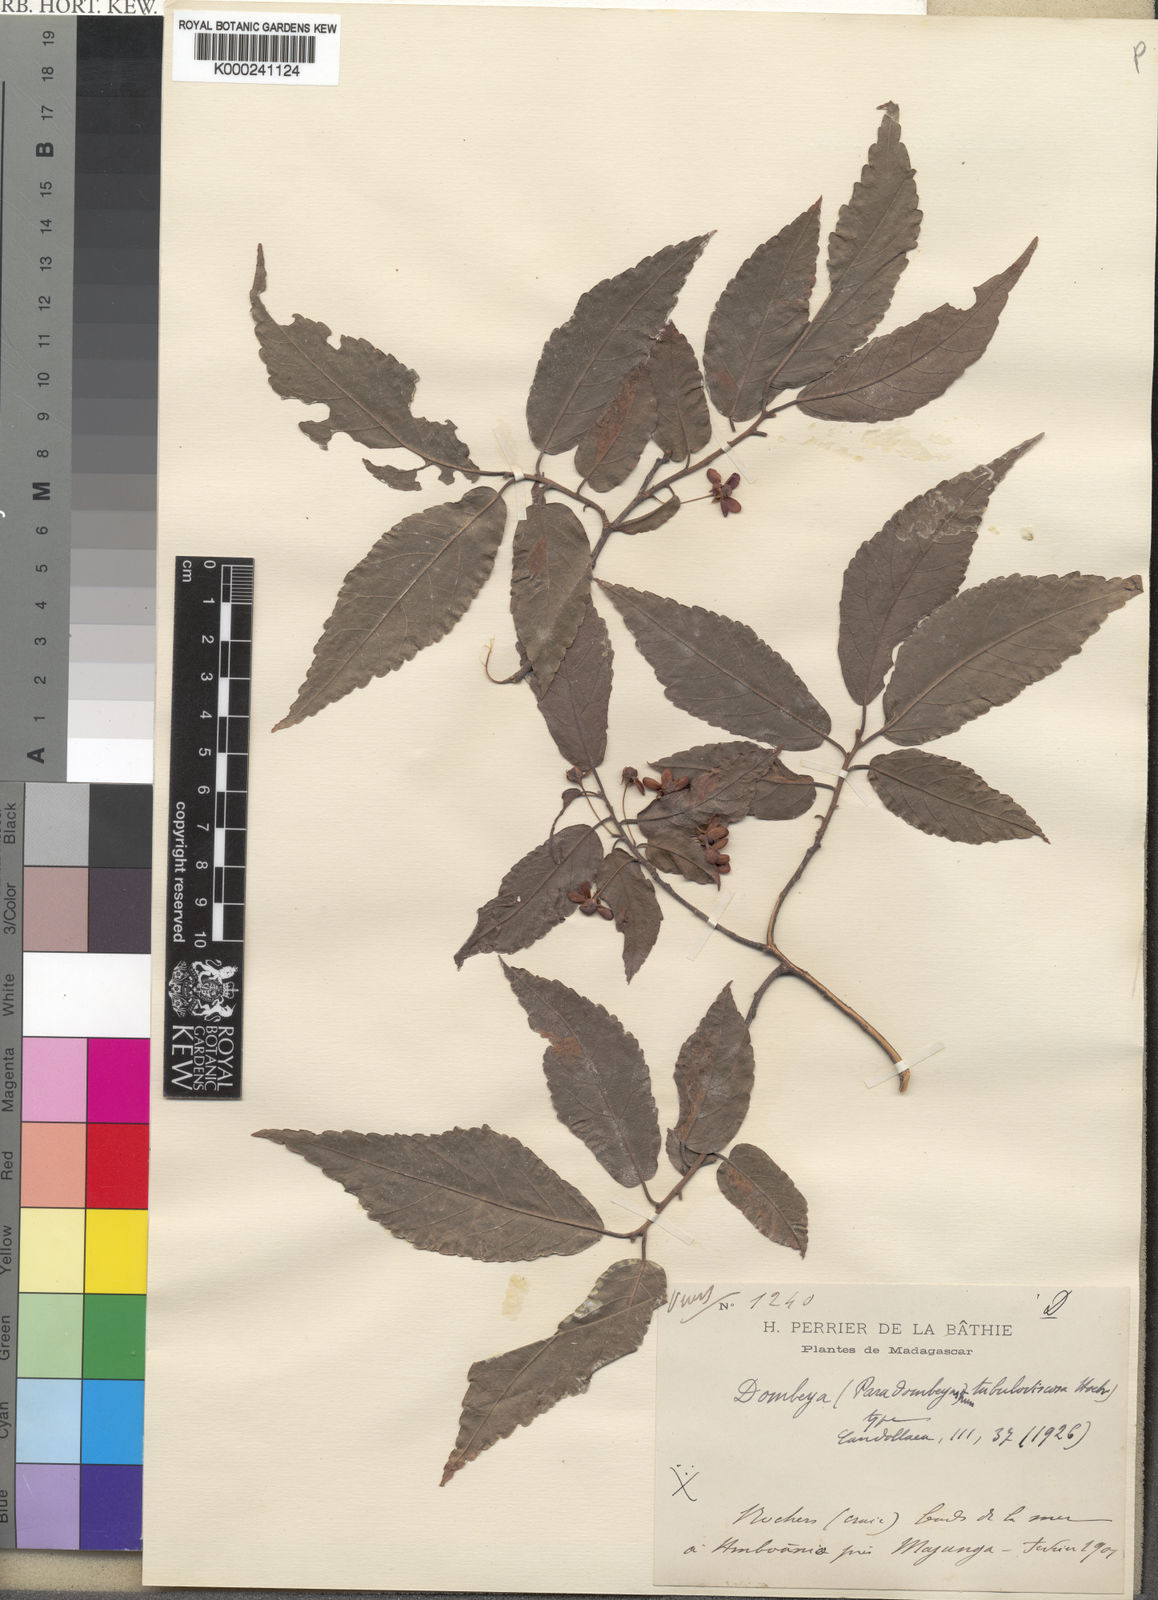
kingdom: Plantae
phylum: Tracheophyta
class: Magnoliopsida
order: Malvales
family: Malvaceae
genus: Dombeya
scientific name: Dombeya tubulosoviscosa
